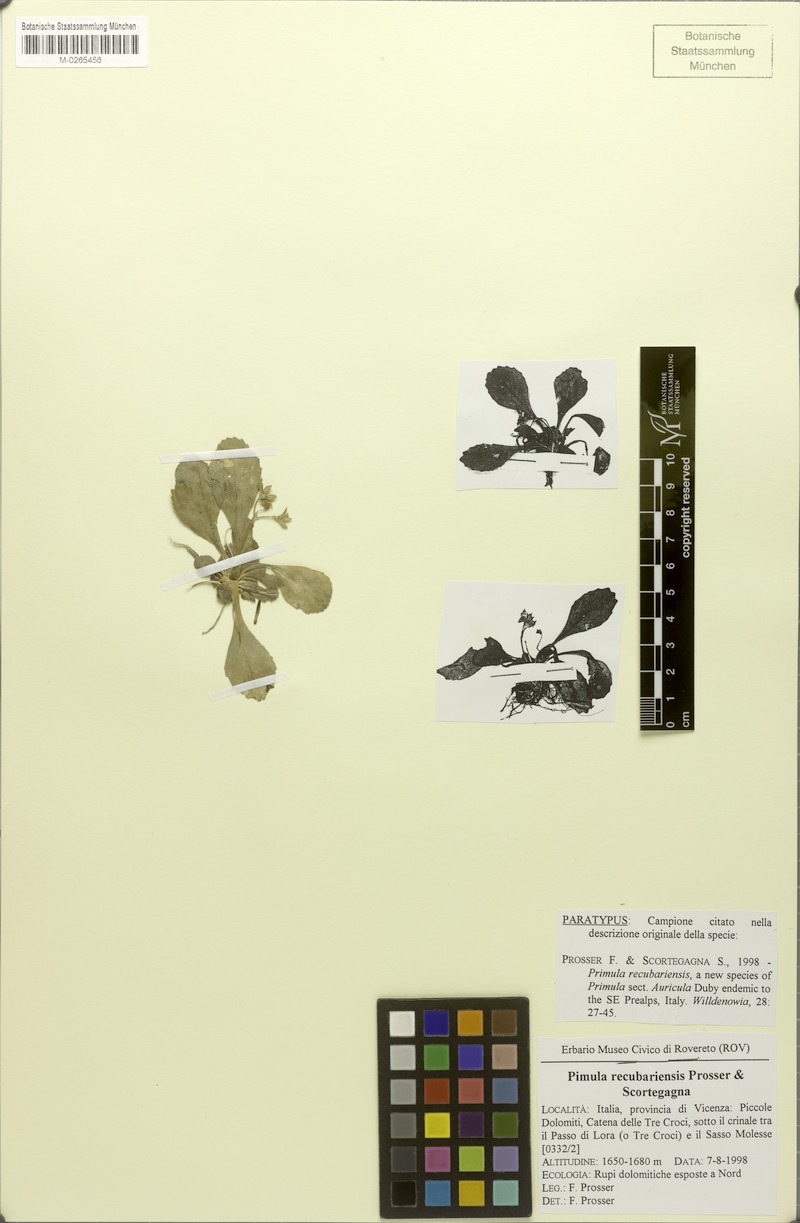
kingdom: Plantae
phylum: Tracheophyta
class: Magnoliopsida
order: Ericales
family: Primulaceae
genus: Primula
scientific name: Primula recubariensis
